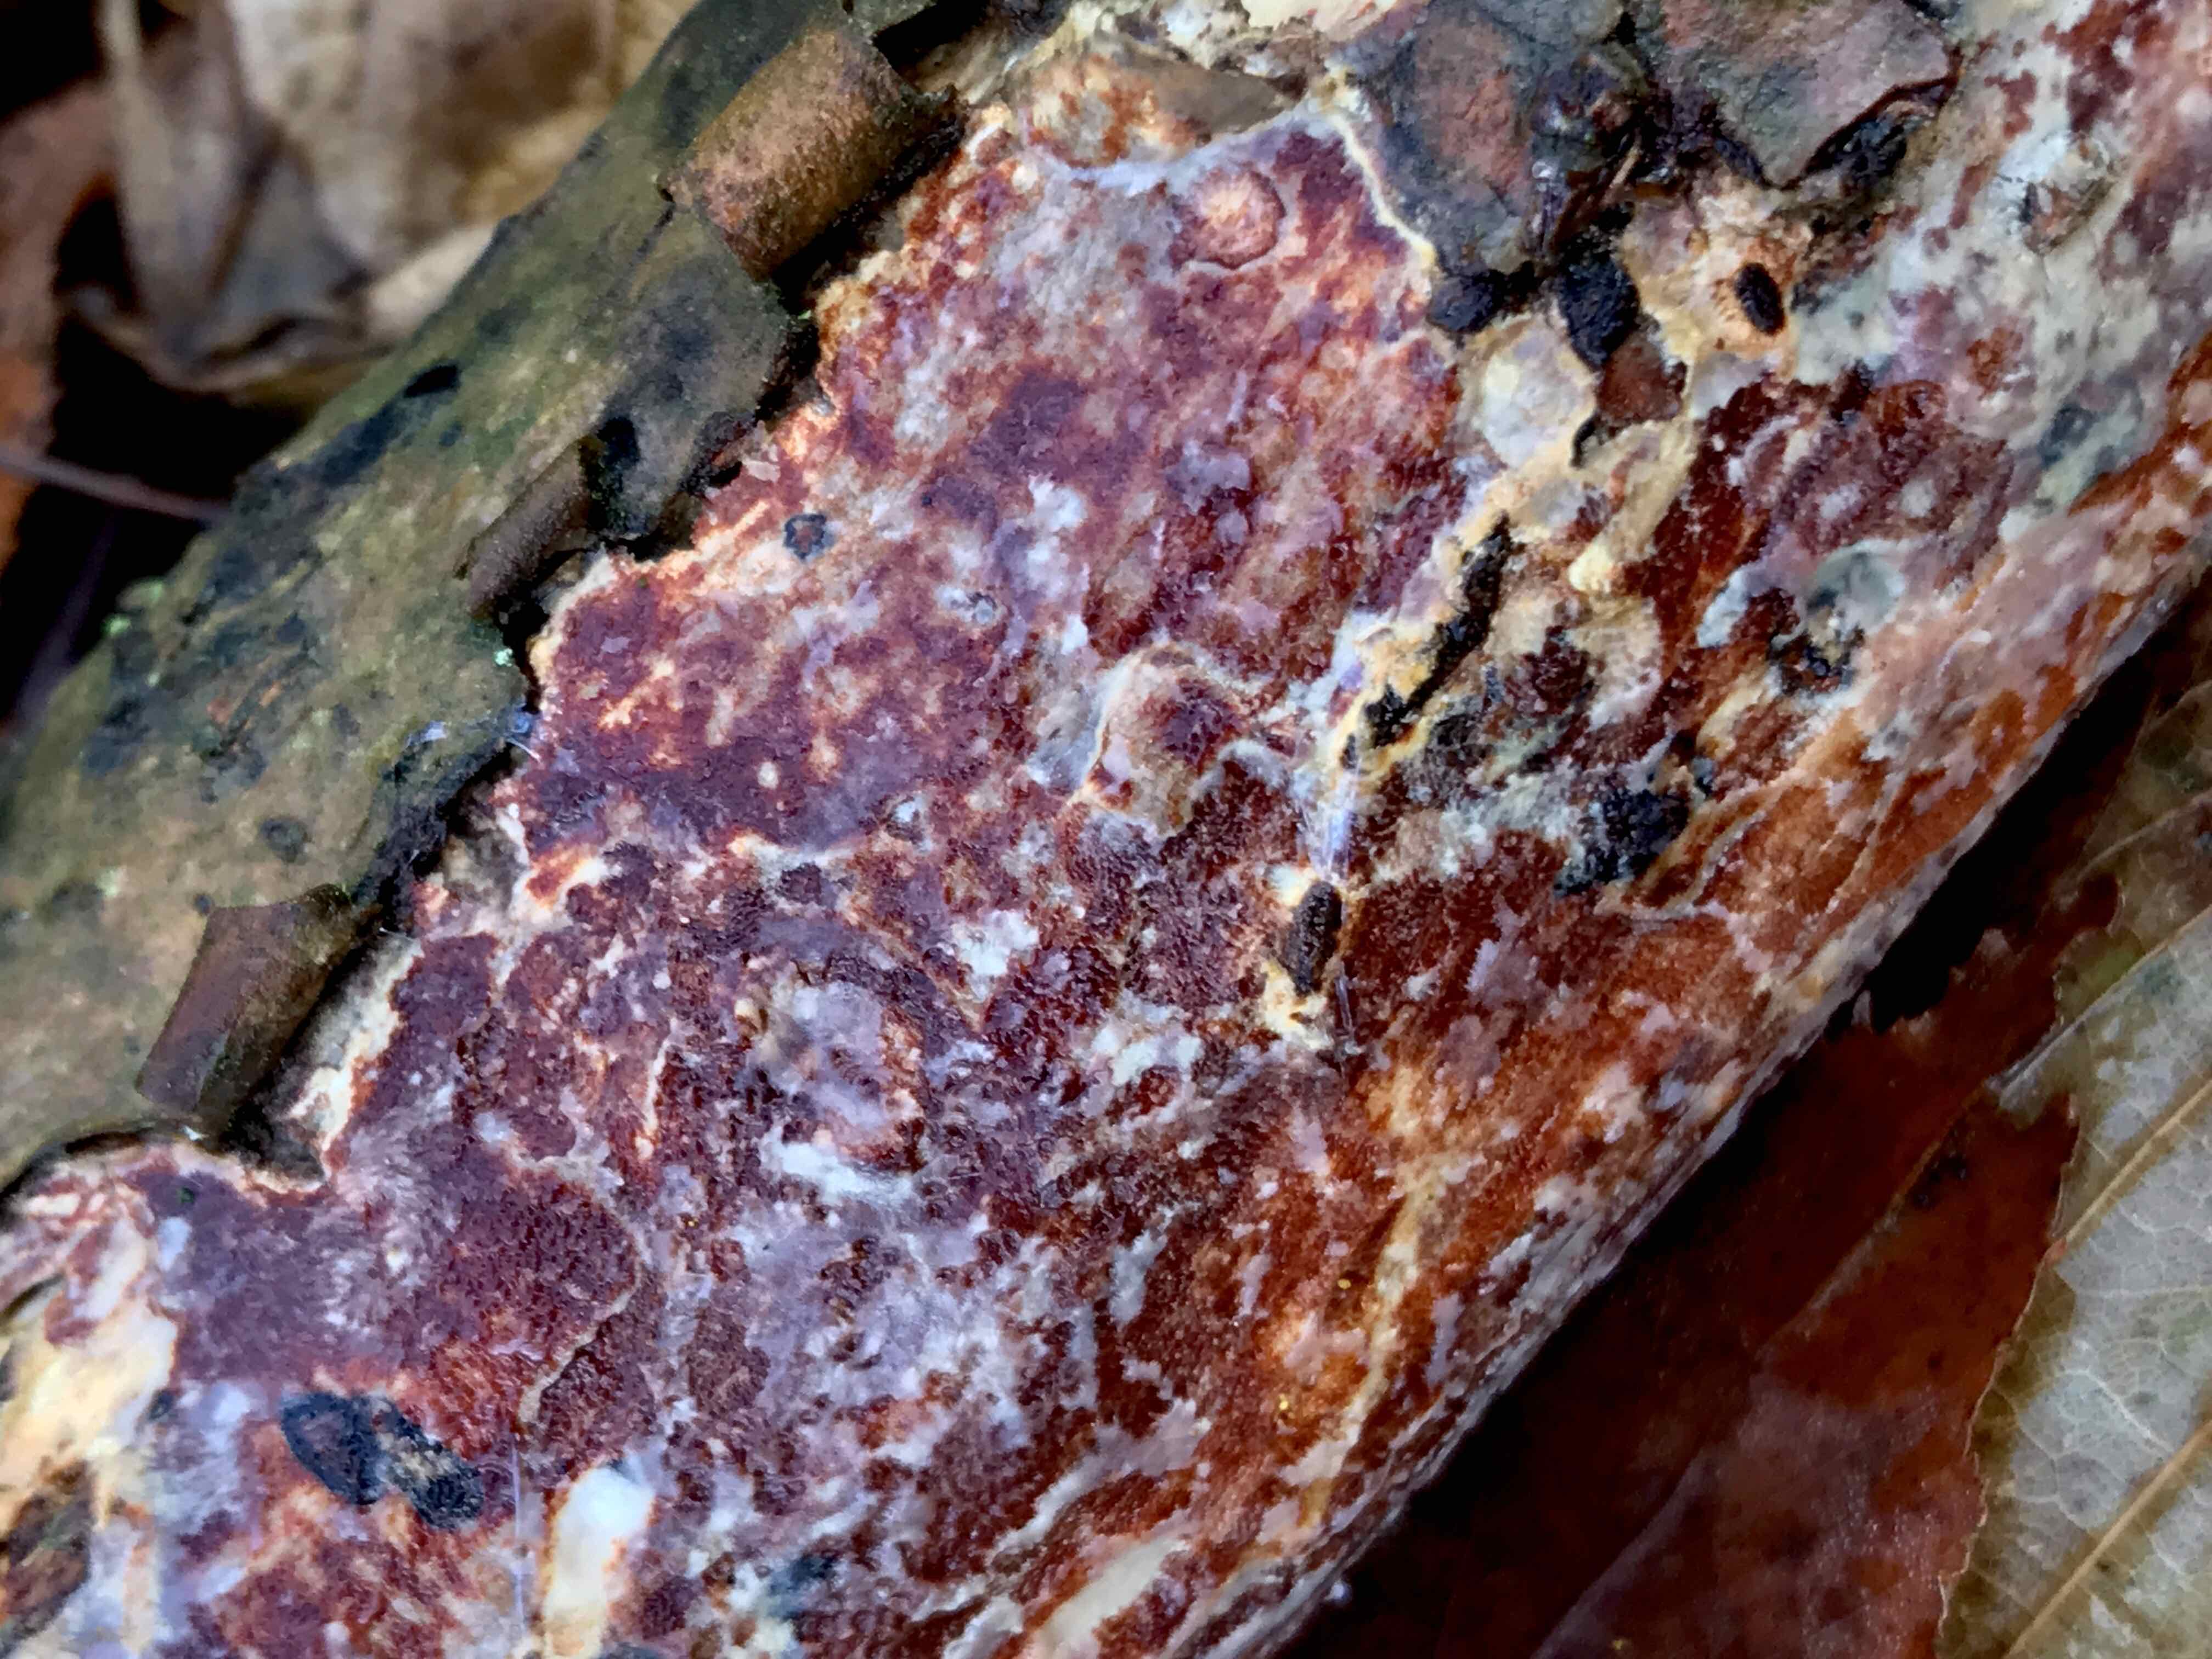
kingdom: Fungi
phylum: Basidiomycota
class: Agaricomycetes
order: Corticiales
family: Vuilleminiaceae
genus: Vuilleminia
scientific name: Vuilleminia comedens
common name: almindelig barksprænger
